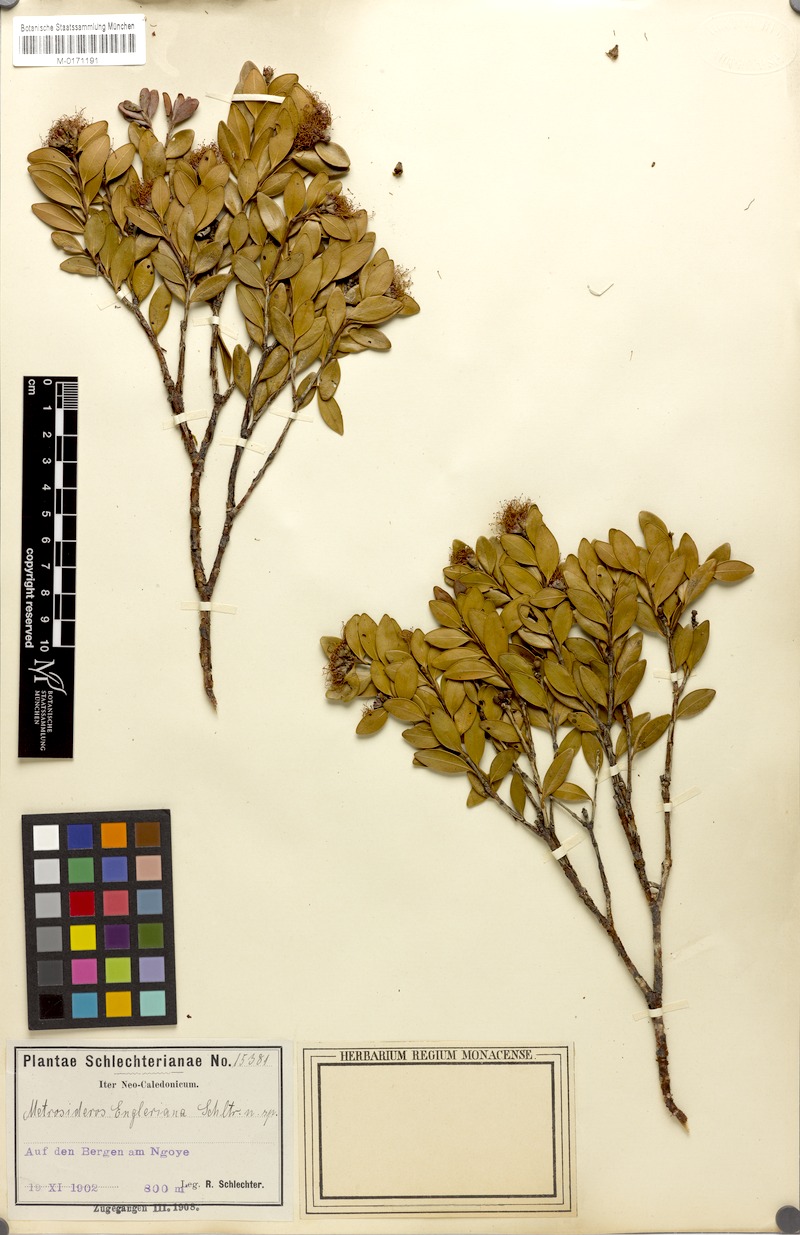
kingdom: Plantae
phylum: Tracheophyta
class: Magnoliopsida
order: Myrtales
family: Myrtaceae
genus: Metrosideros
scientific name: Metrosideros engleriana
